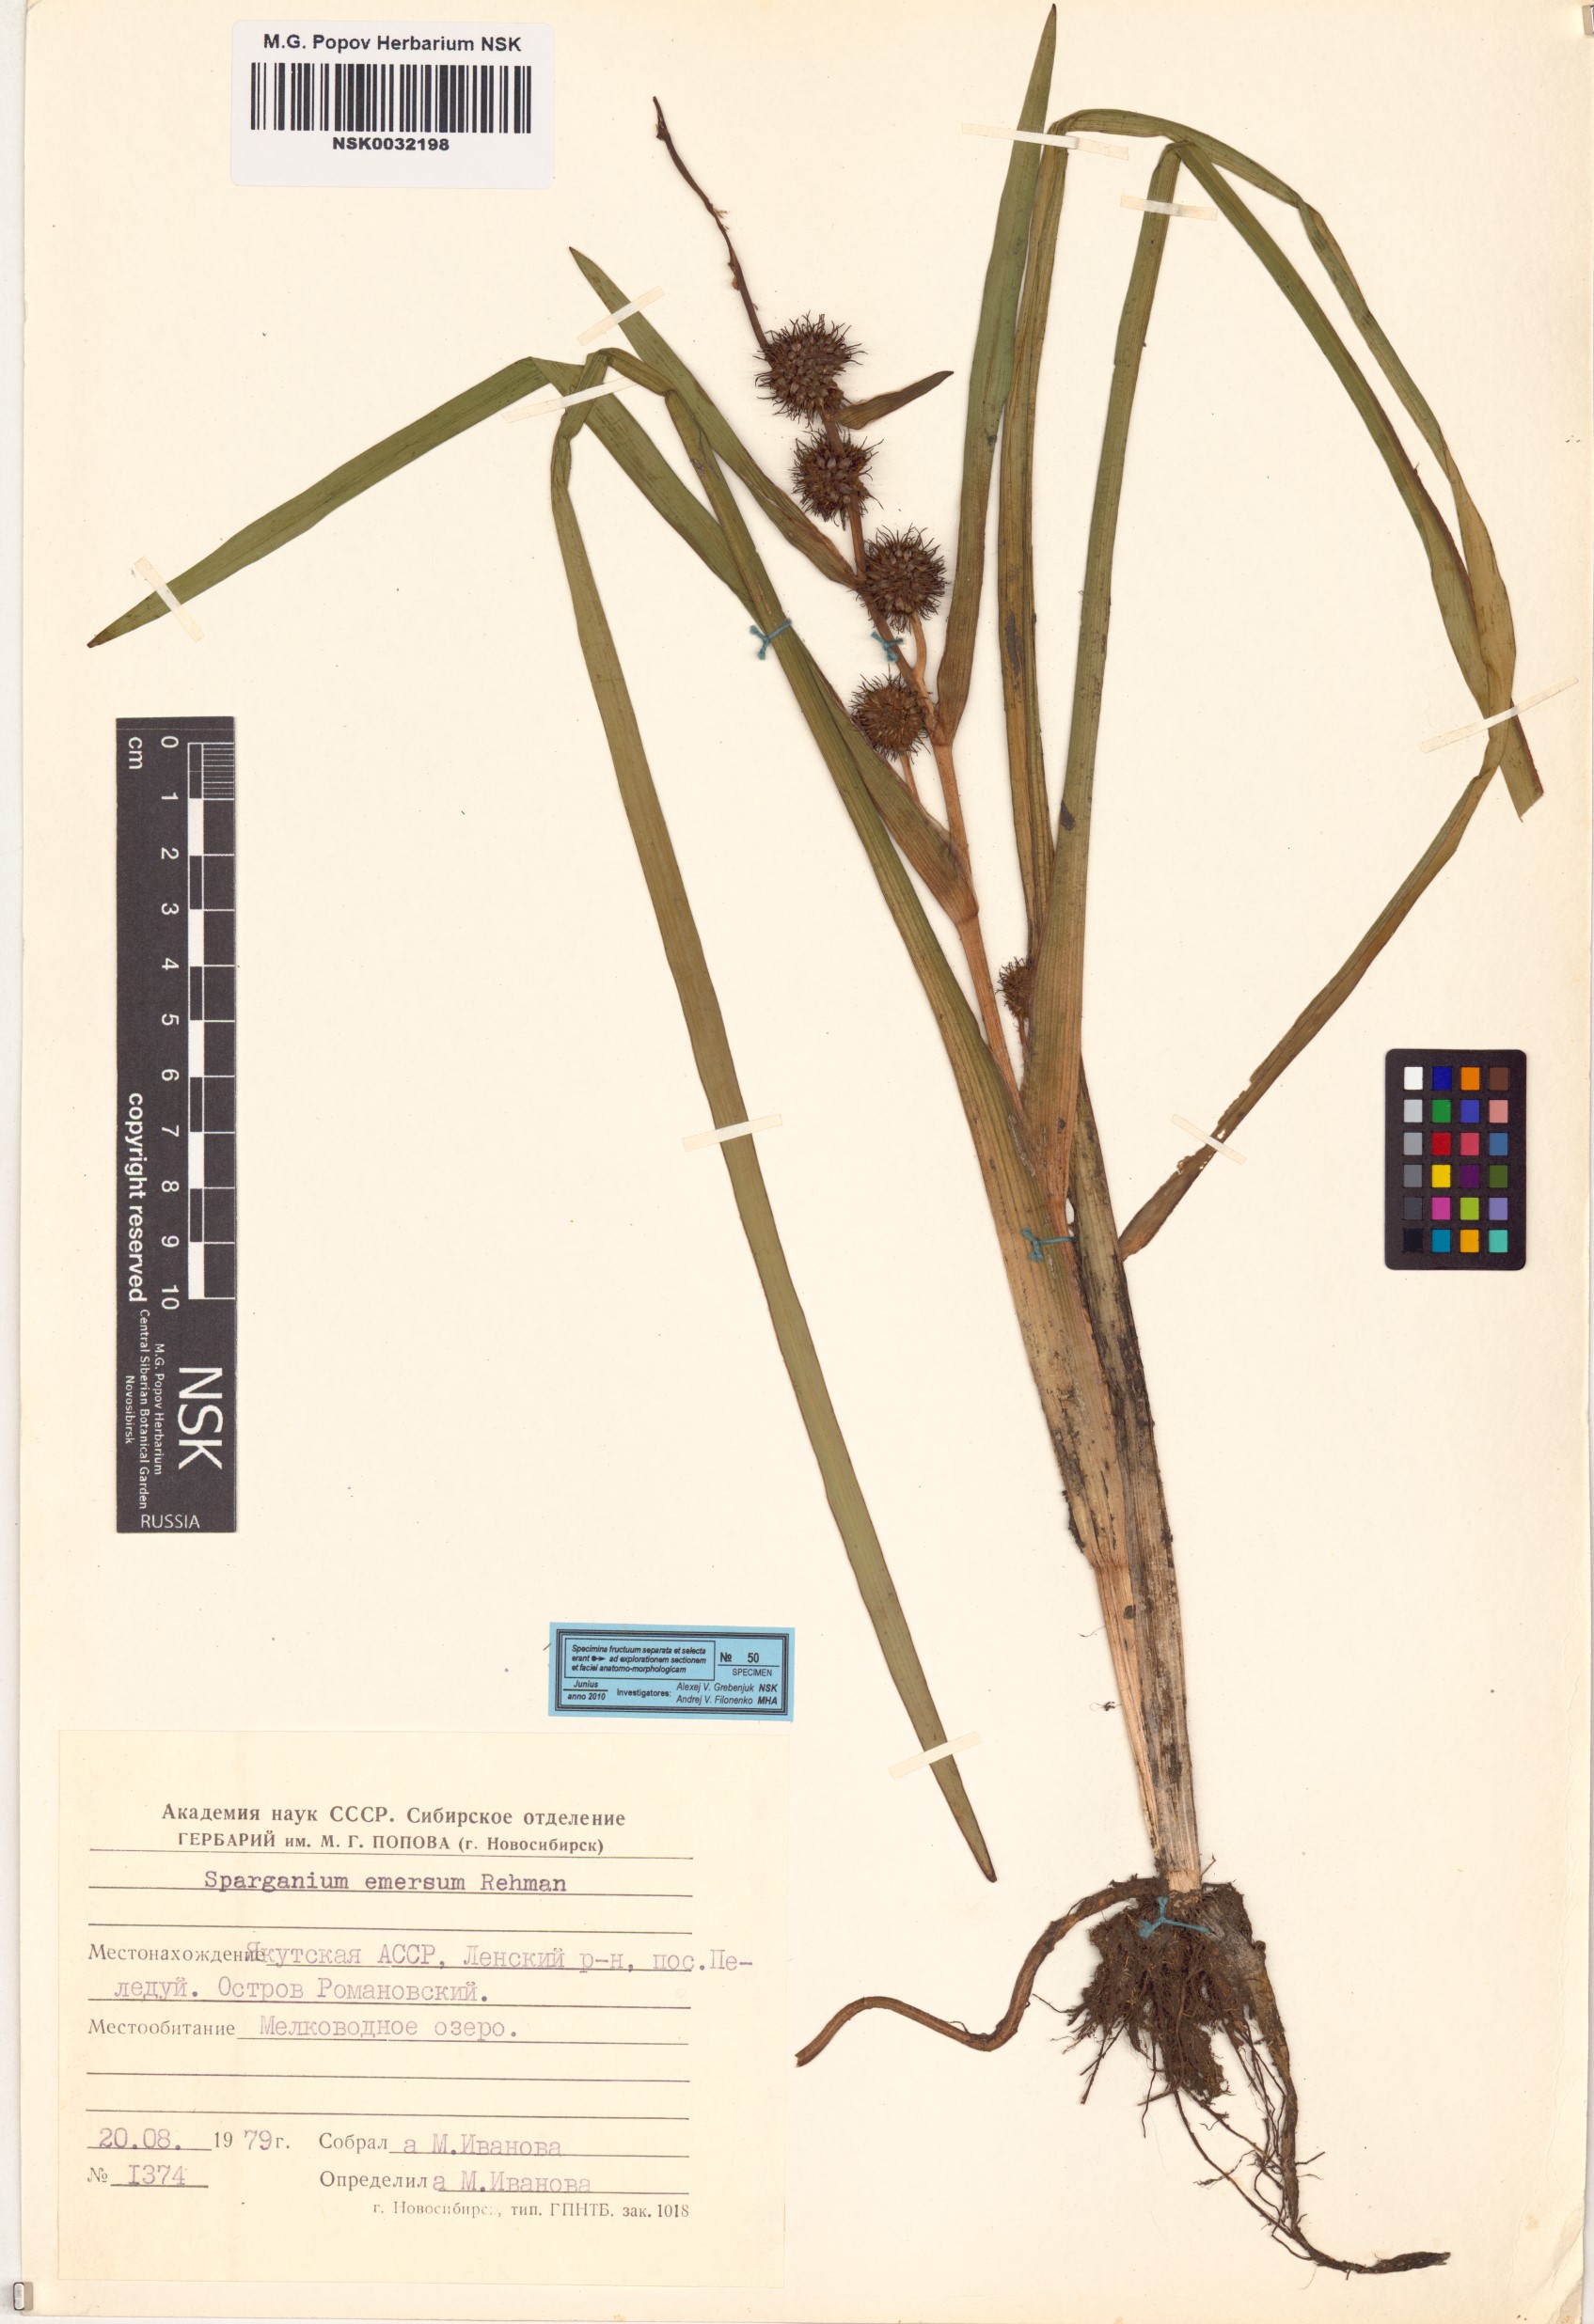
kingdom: Plantae
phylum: Tracheophyta
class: Liliopsida
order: Poales
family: Typhaceae
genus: Sparganium
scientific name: Sparganium emersum
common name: Unbranched bur-reed
